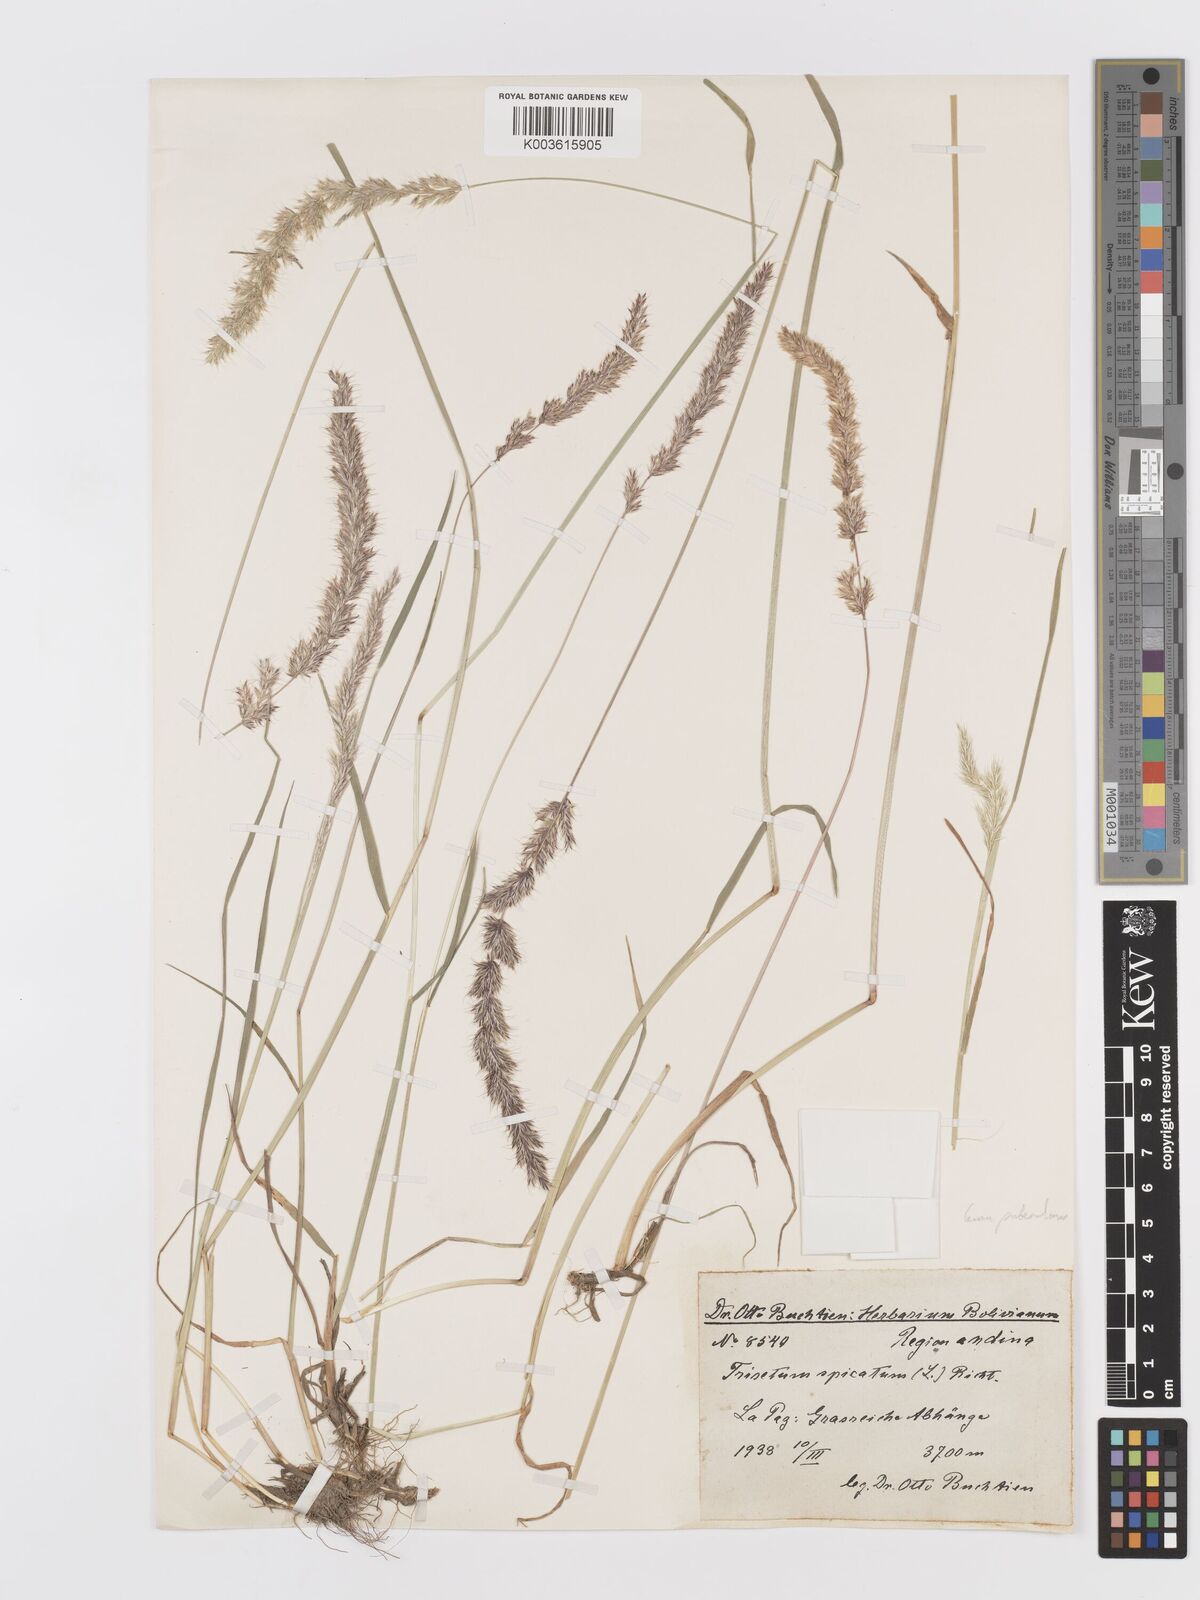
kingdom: Plantae
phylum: Tracheophyta
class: Liliopsida
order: Poales
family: Poaceae
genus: Koeleria
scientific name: Koeleria spicata
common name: Mountain trisetum
